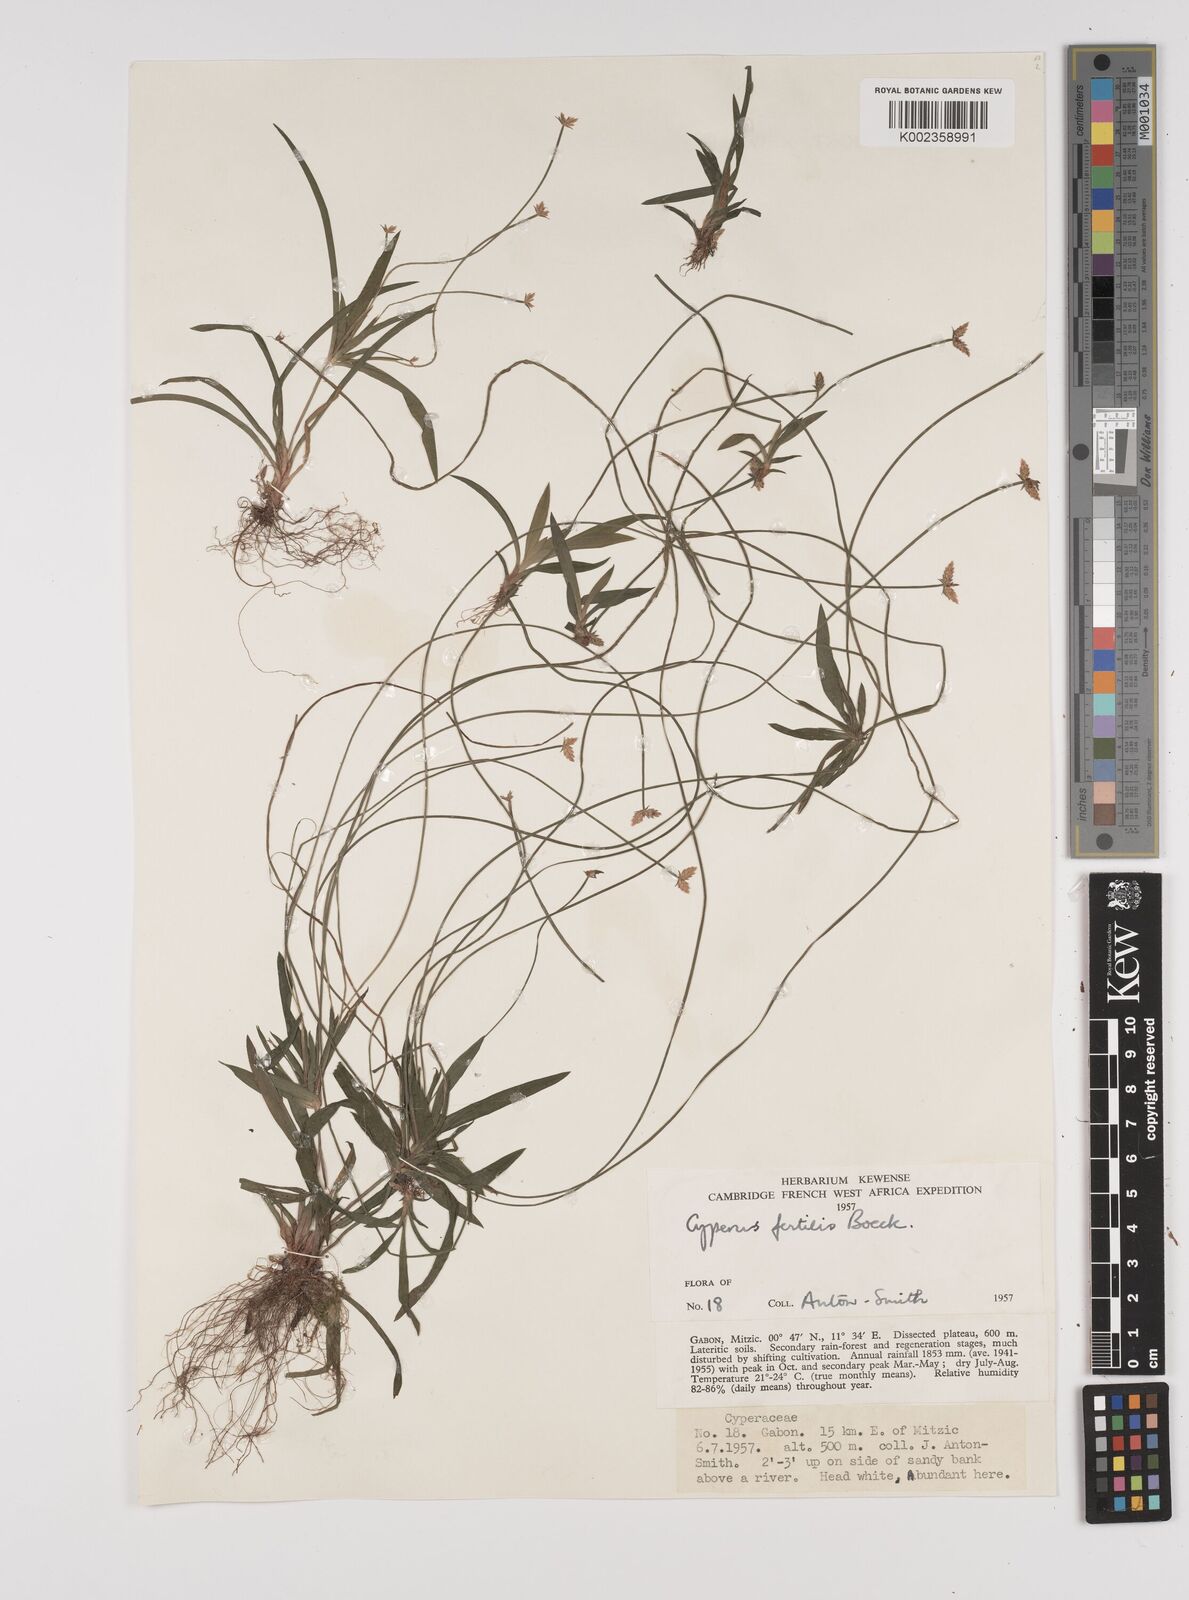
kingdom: Plantae
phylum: Tracheophyta
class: Liliopsida
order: Poales
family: Cyperaceae
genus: Cyperus
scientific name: Cyperus fertilis
